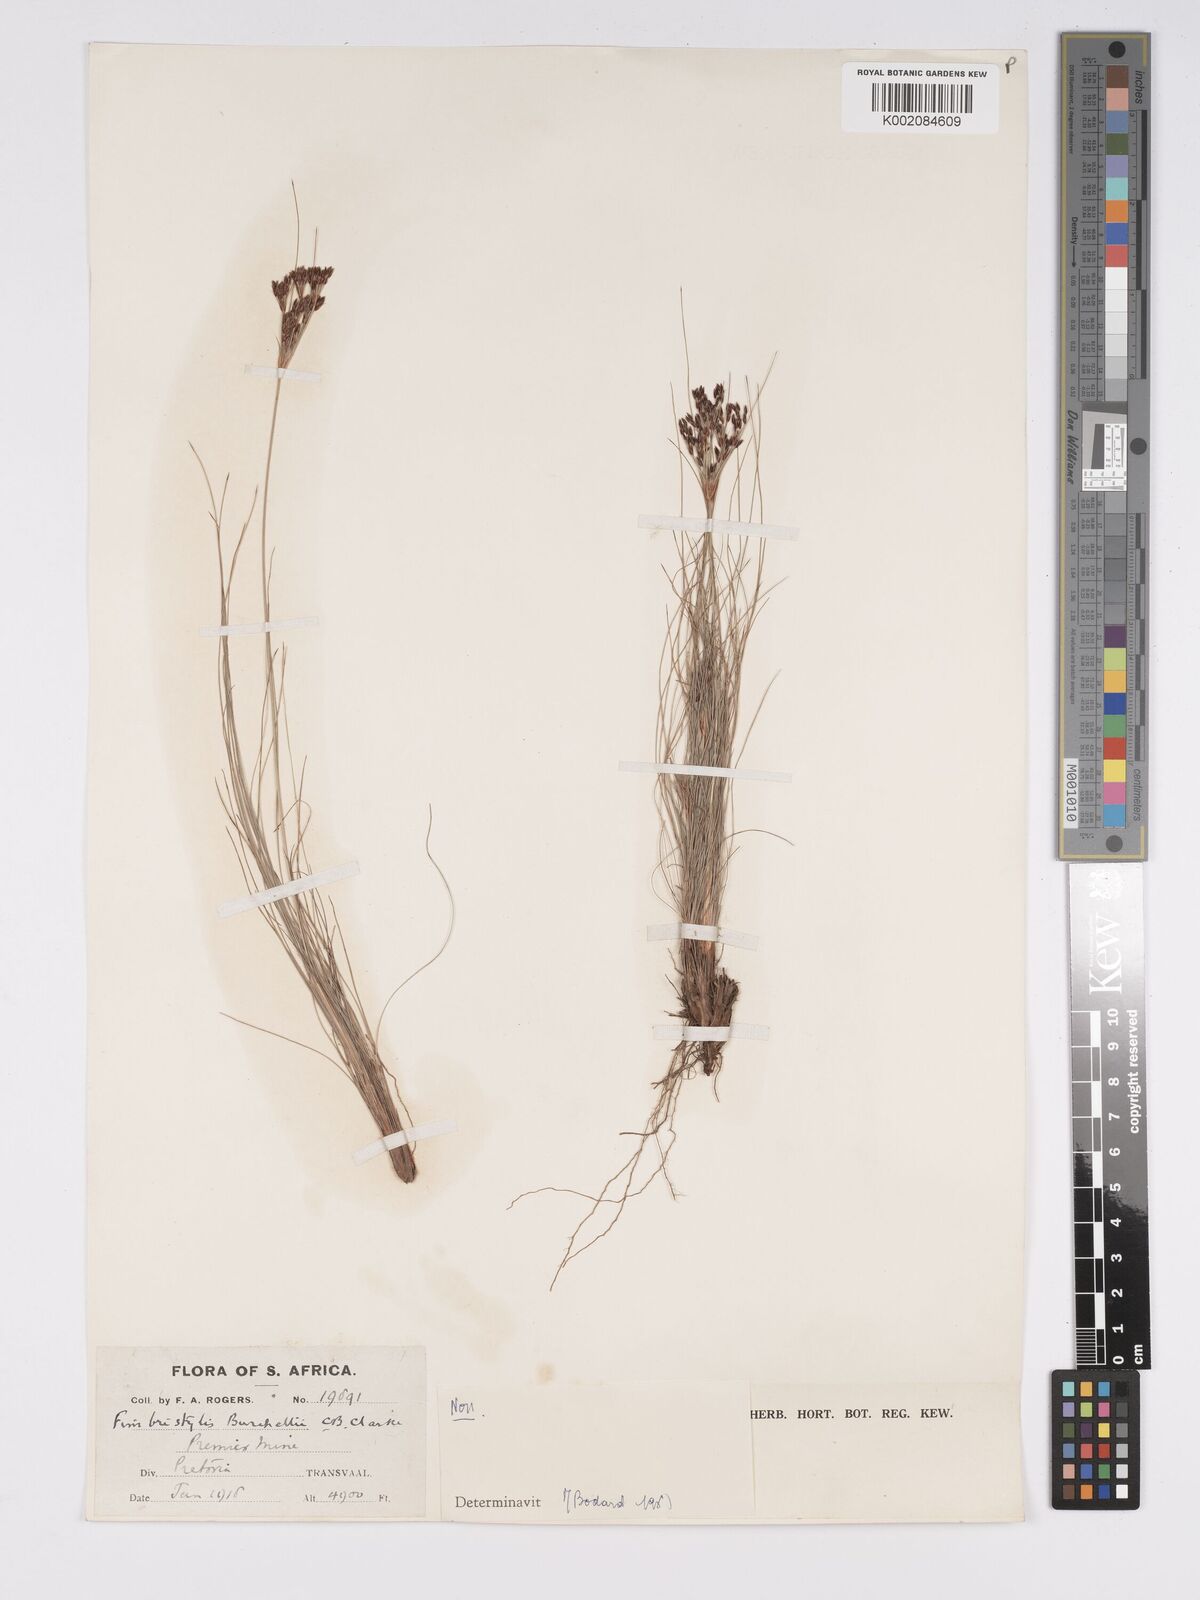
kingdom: Plantae
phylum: Tracheophyta
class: Liliopsida
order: Poales
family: Cyperaceae
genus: Bulbostylis
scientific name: Bulbostylis burchellii
